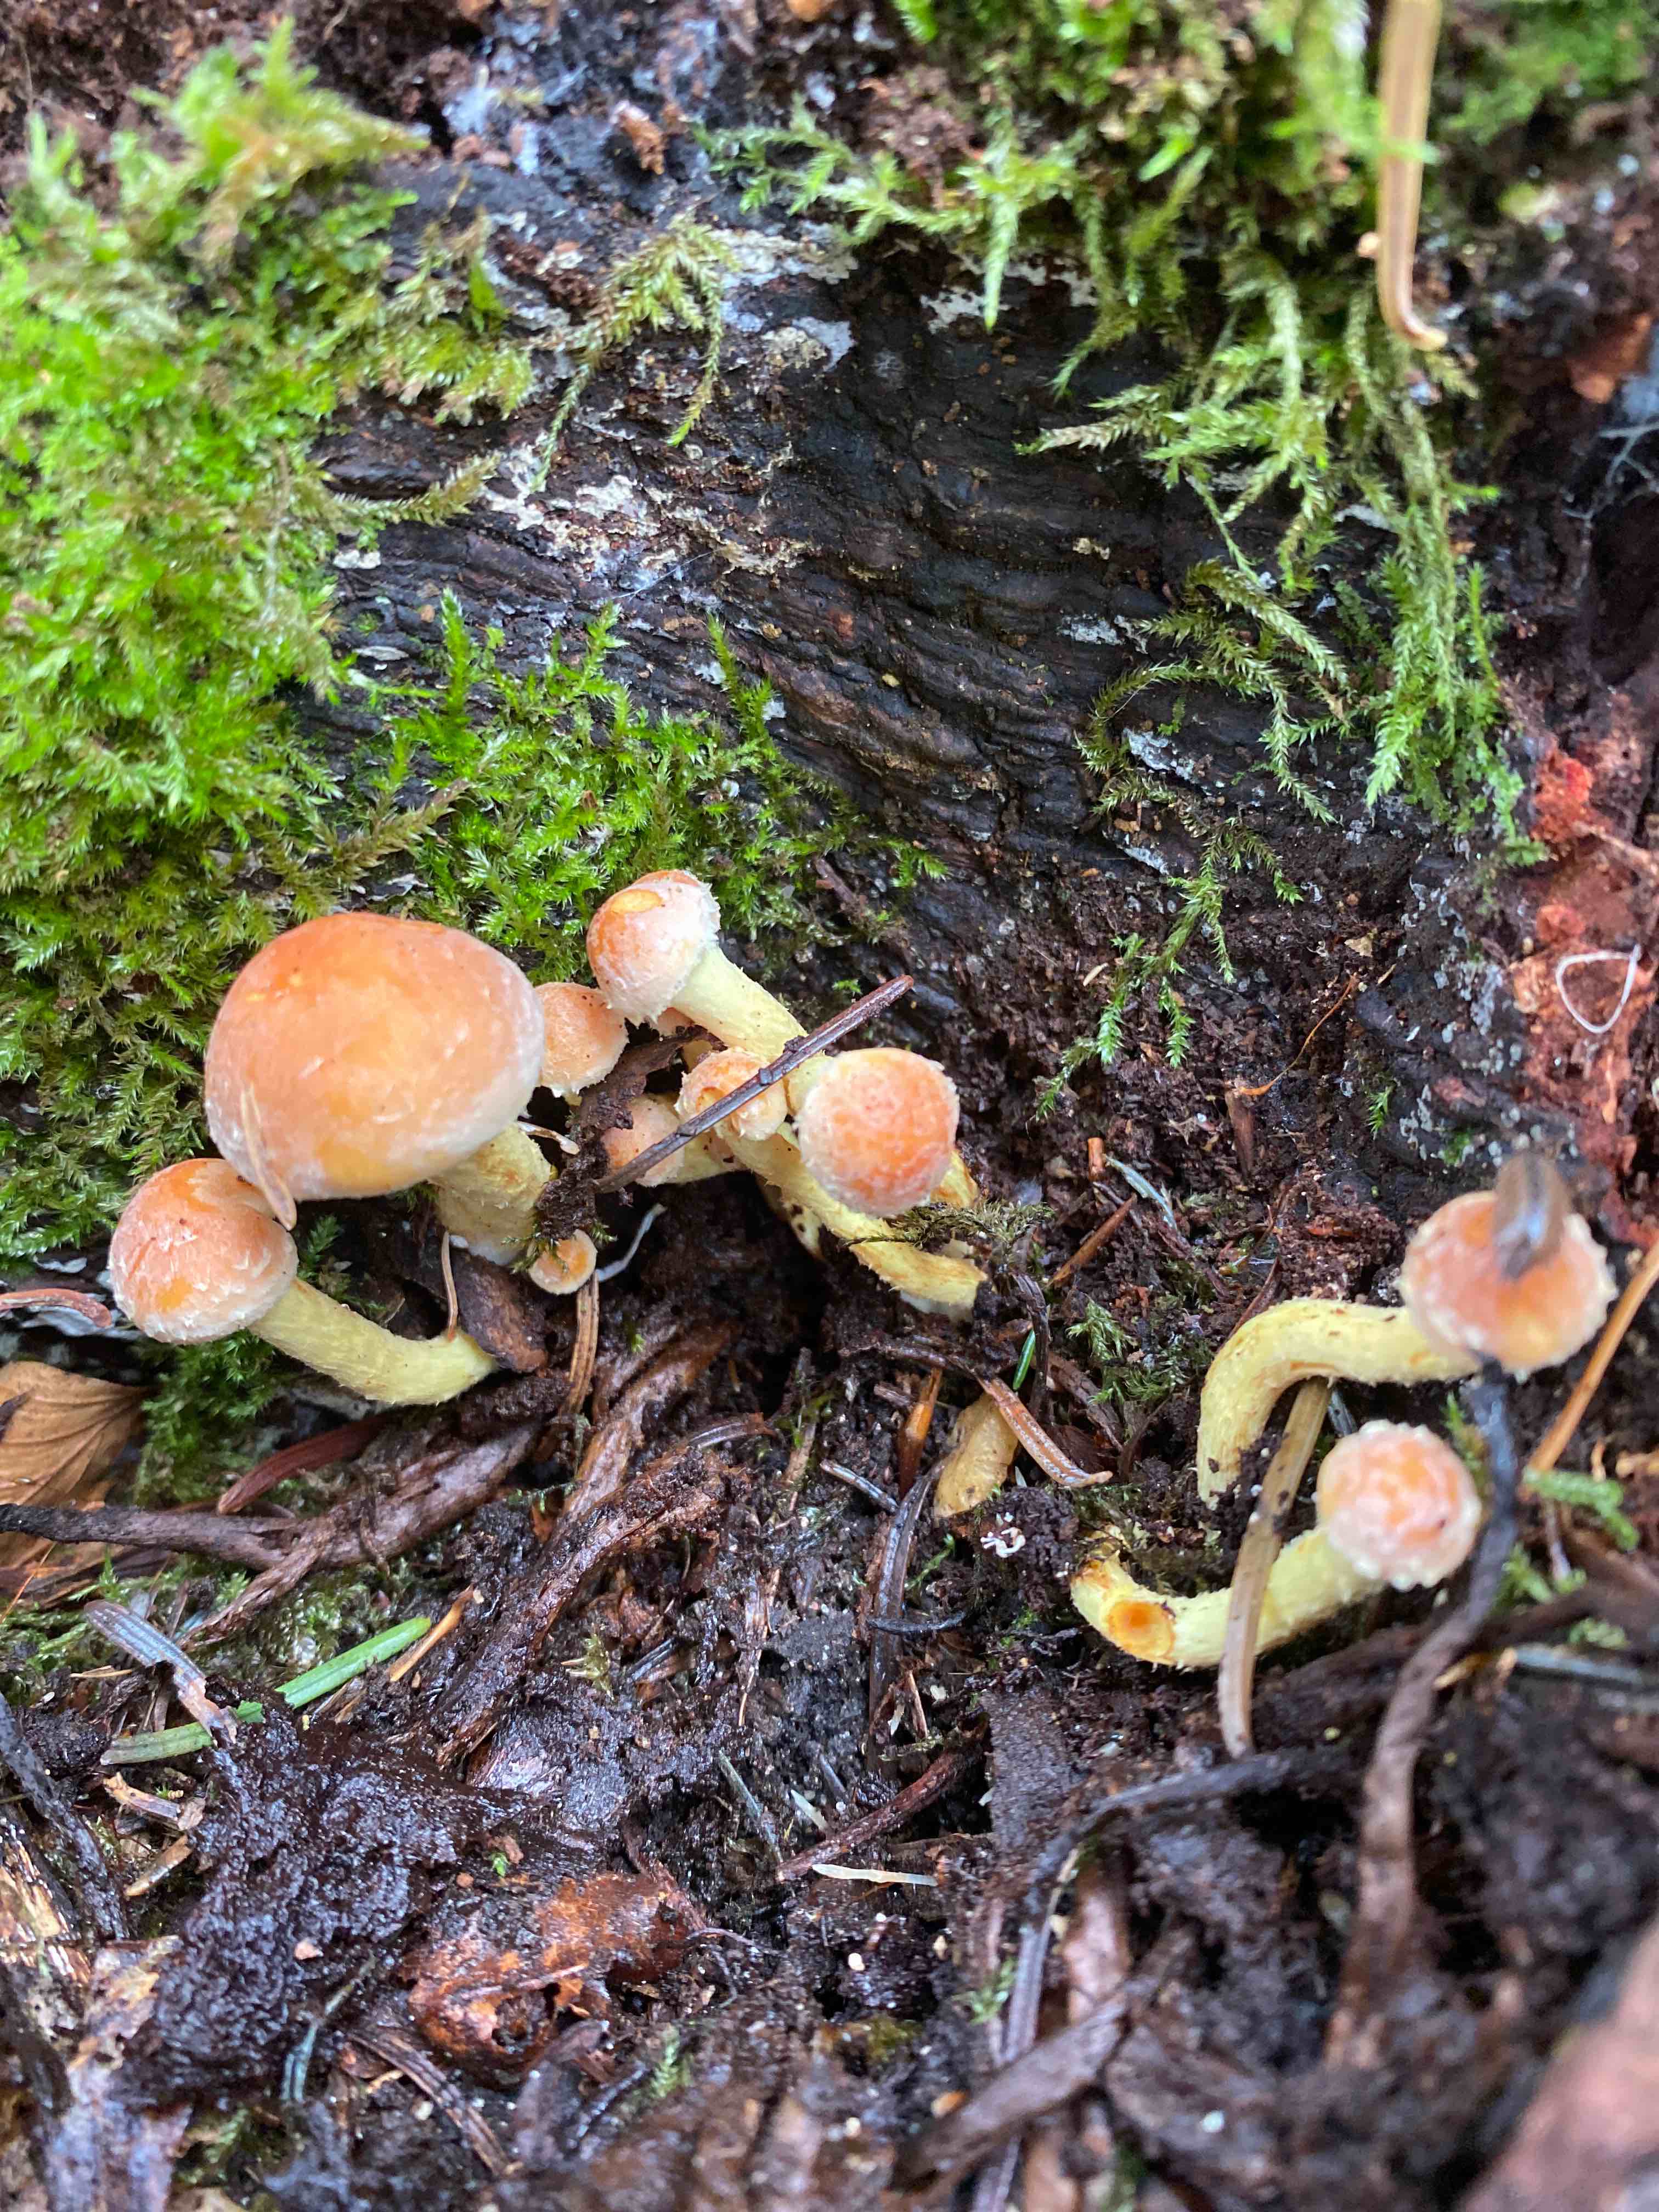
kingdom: Fungi
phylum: Basidiomycota
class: Agaricomycetes
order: Agaricales
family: Strophariaceae
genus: Hypholoma
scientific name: Hypholoma fasciculare
